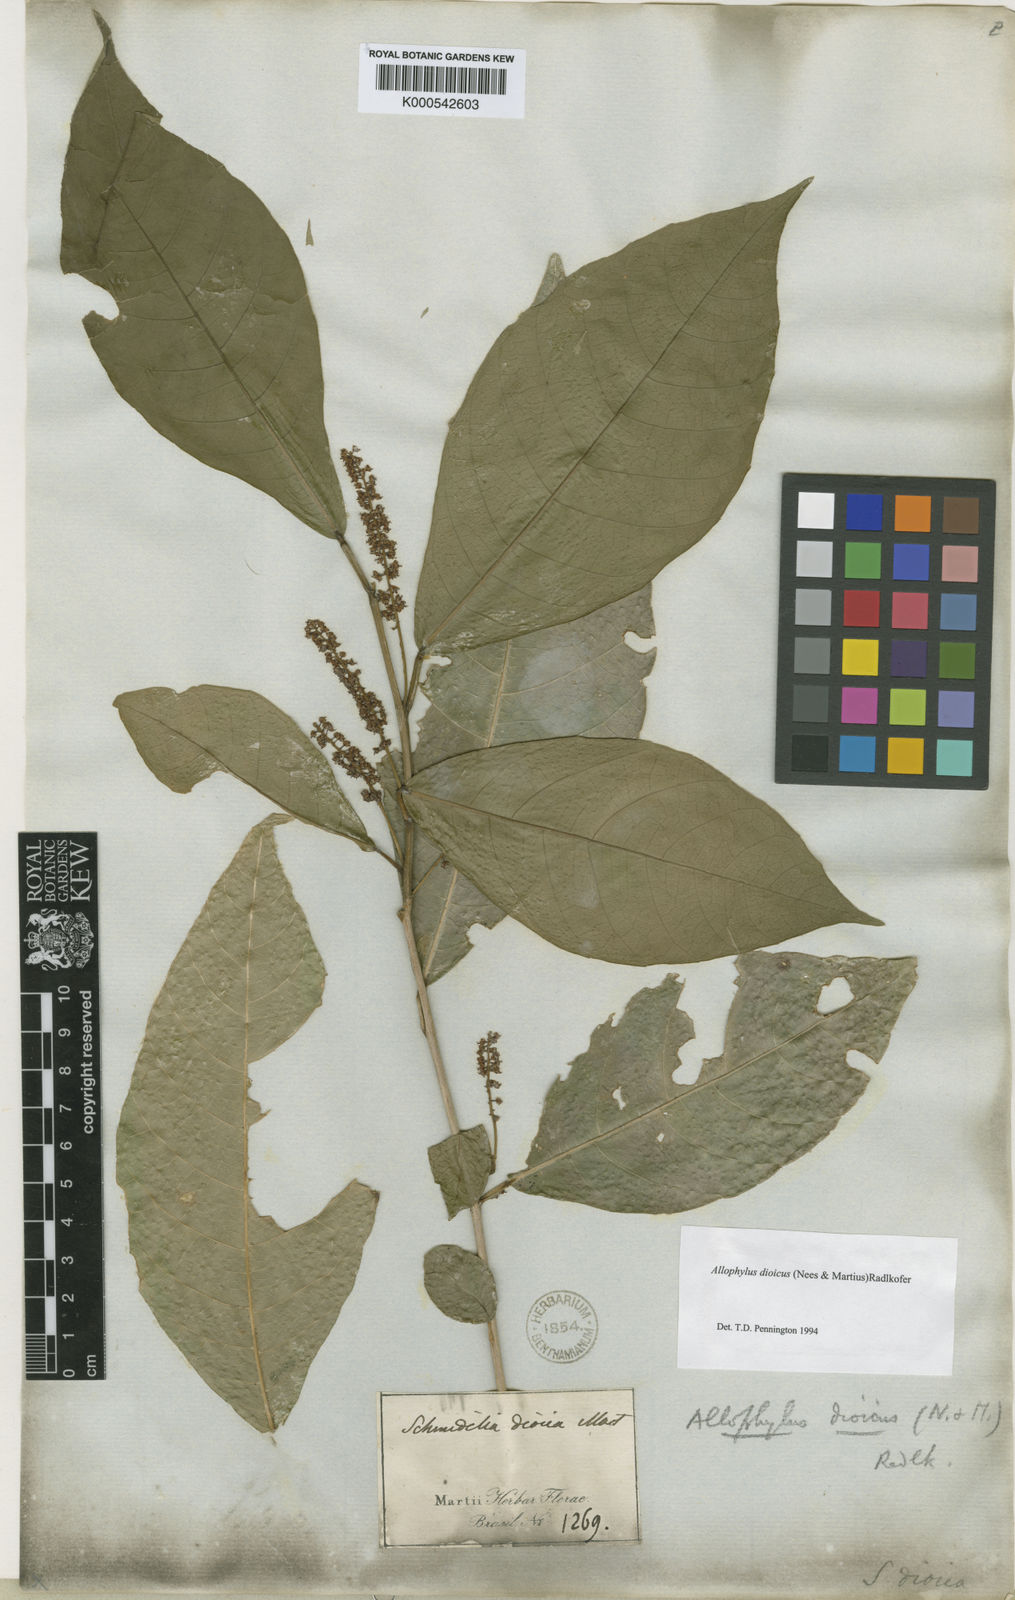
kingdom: Plantae
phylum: Tracheophyta
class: Magnoliopsida
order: Sapindales
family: Sapindaceae
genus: Allophylus
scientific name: Allophylus dioicus
